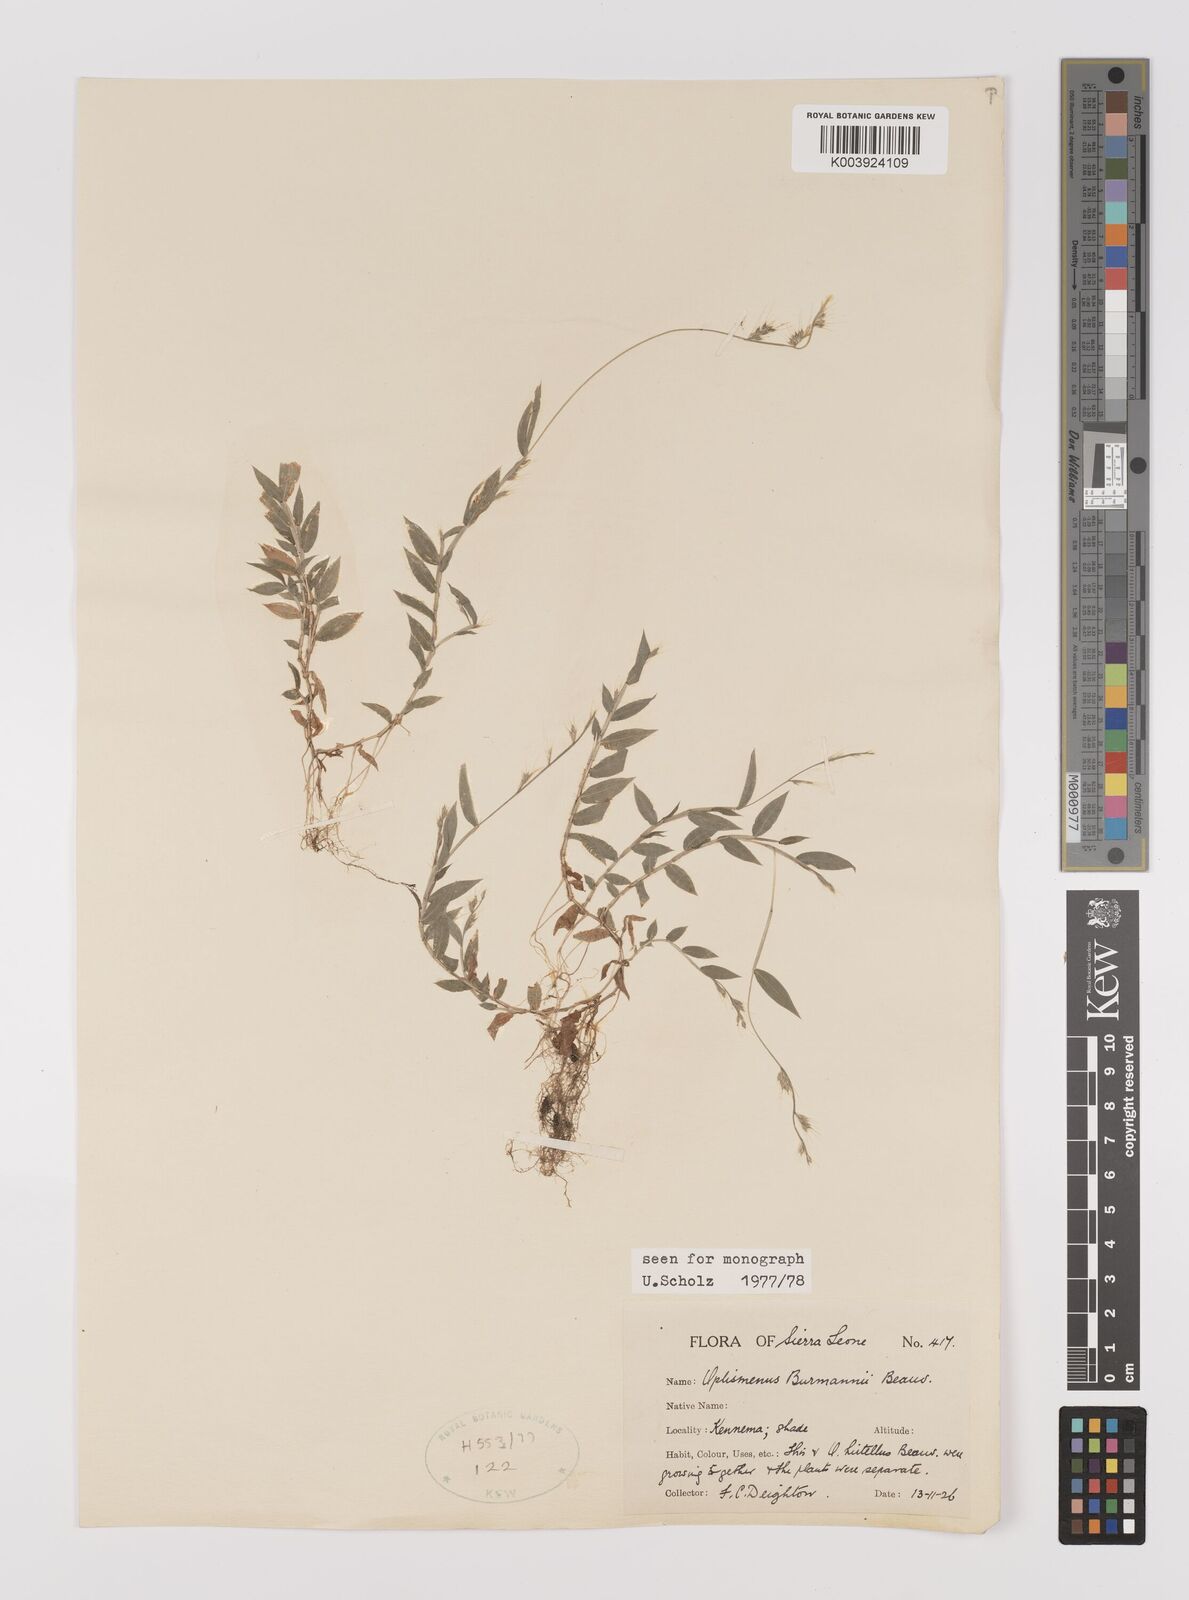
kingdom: Plantae
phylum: Tracheophyta
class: Liliopsida
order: Poales
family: Poaceae
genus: Oplismenus
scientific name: Oplismenus burmanni
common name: Burmann's basketgrass
